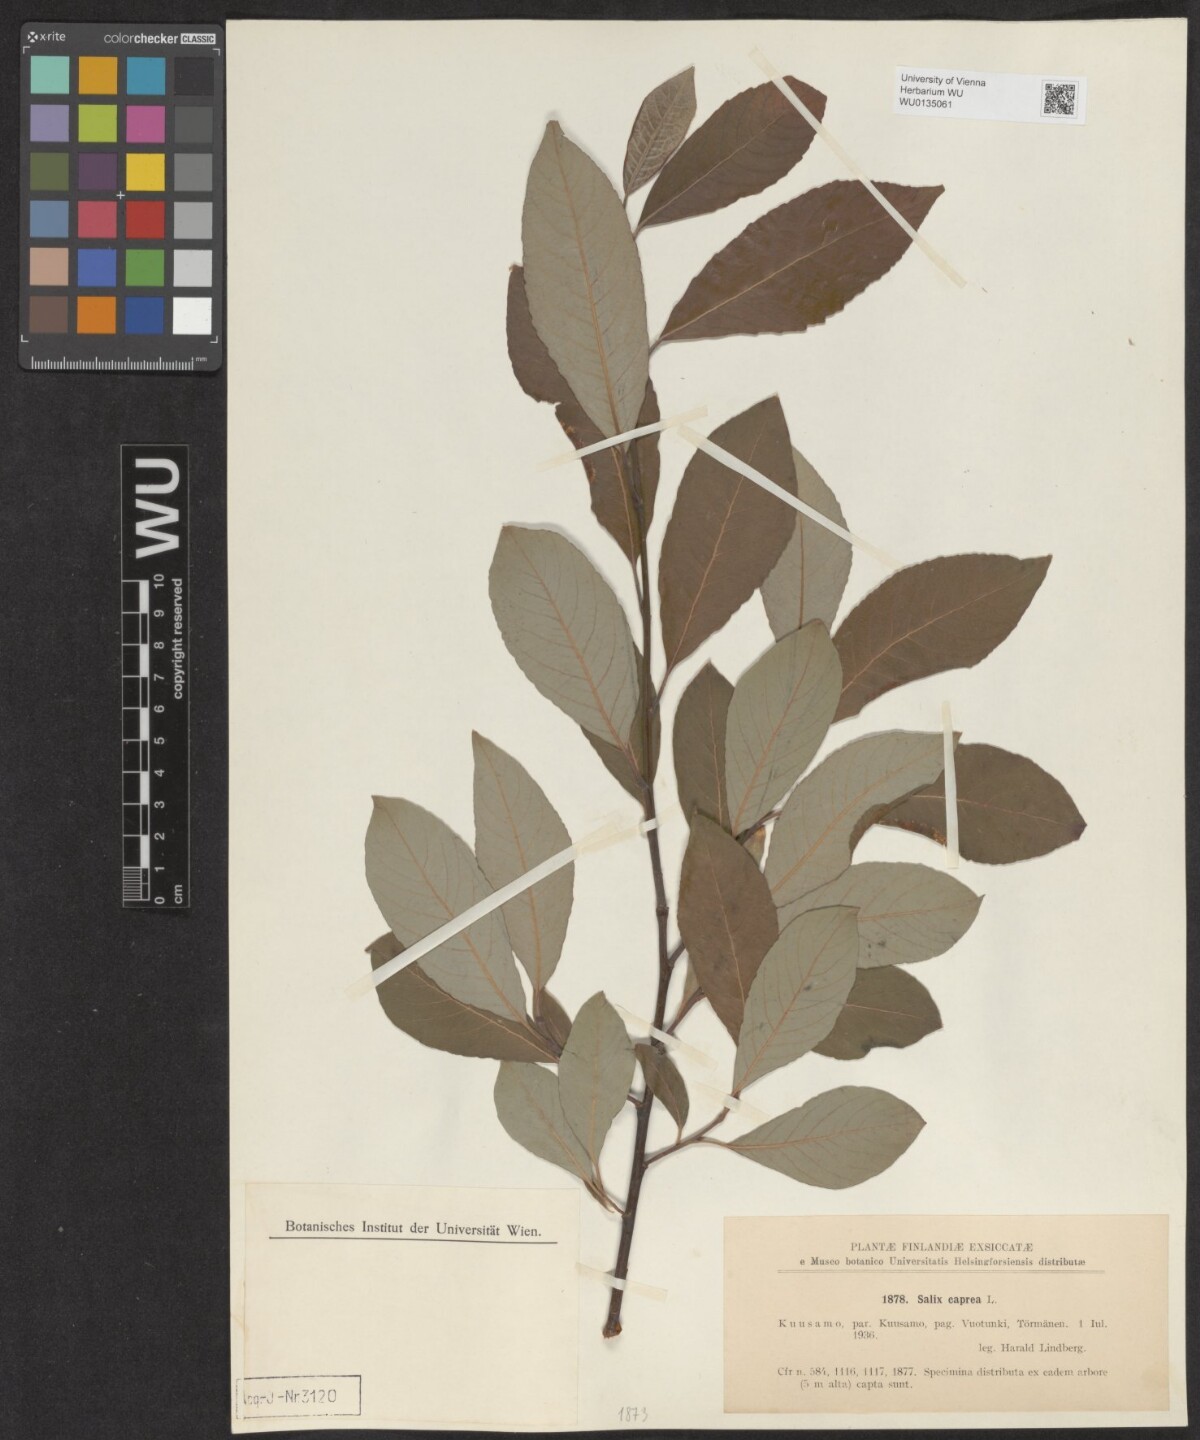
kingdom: Plantae
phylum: Tracheophyta
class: Magnoliopsida
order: Malpighiales
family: Salicaceae
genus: Salix
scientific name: Salix caprea
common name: Goat willow
